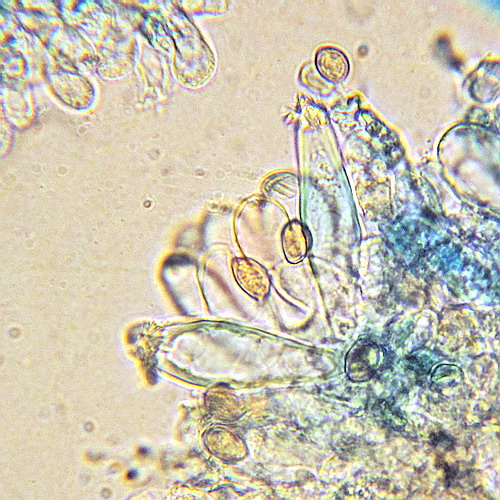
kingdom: Fungi
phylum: Basidiomycota
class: Agaricomycetes
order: Agaricales
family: Inocybaceae
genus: Inocybe
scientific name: Inocybe incarnata
